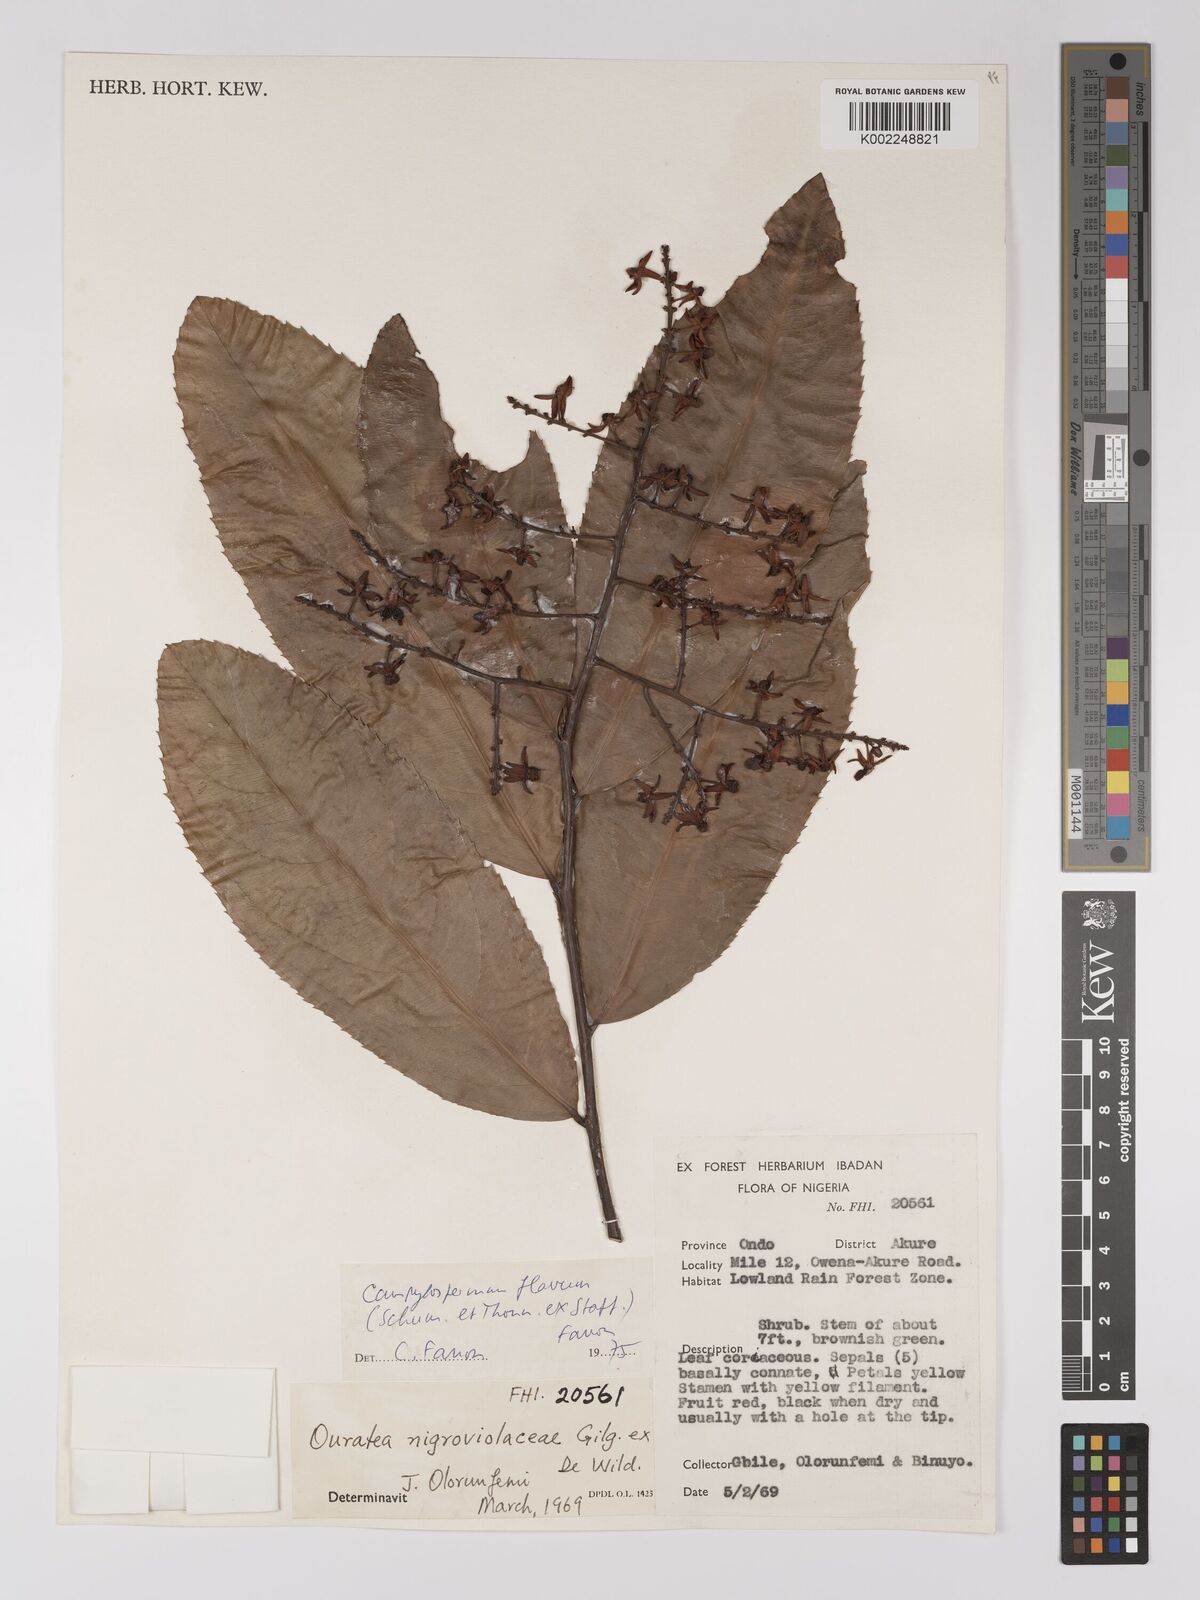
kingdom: Plantae
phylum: Tracheophyta
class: Magnoliopsida
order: Malpighiales
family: Ochnaceae
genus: Campylospermum
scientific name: Campylospermum flavum
